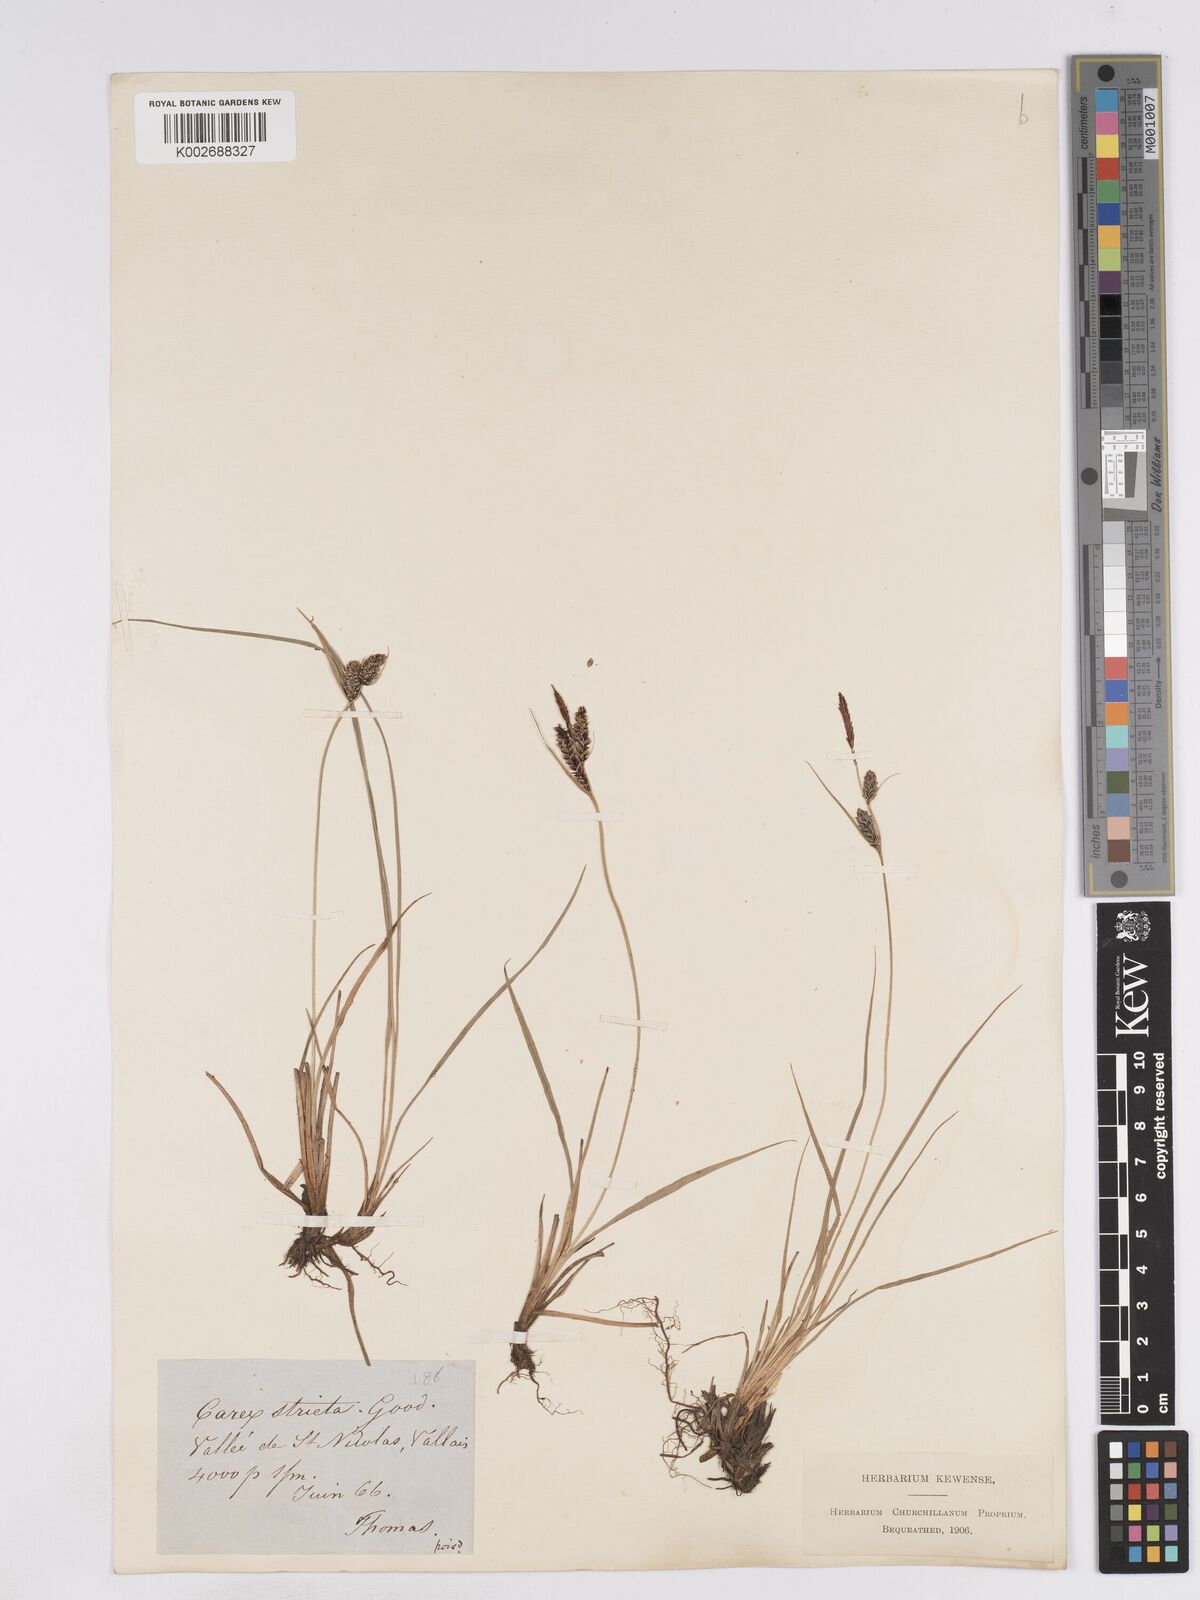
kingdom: Plantae
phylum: Tracheophyta
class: Liliopsida
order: Poales
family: Cyperaceae
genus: Carex
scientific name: Carex elata
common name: Tufted sedge
